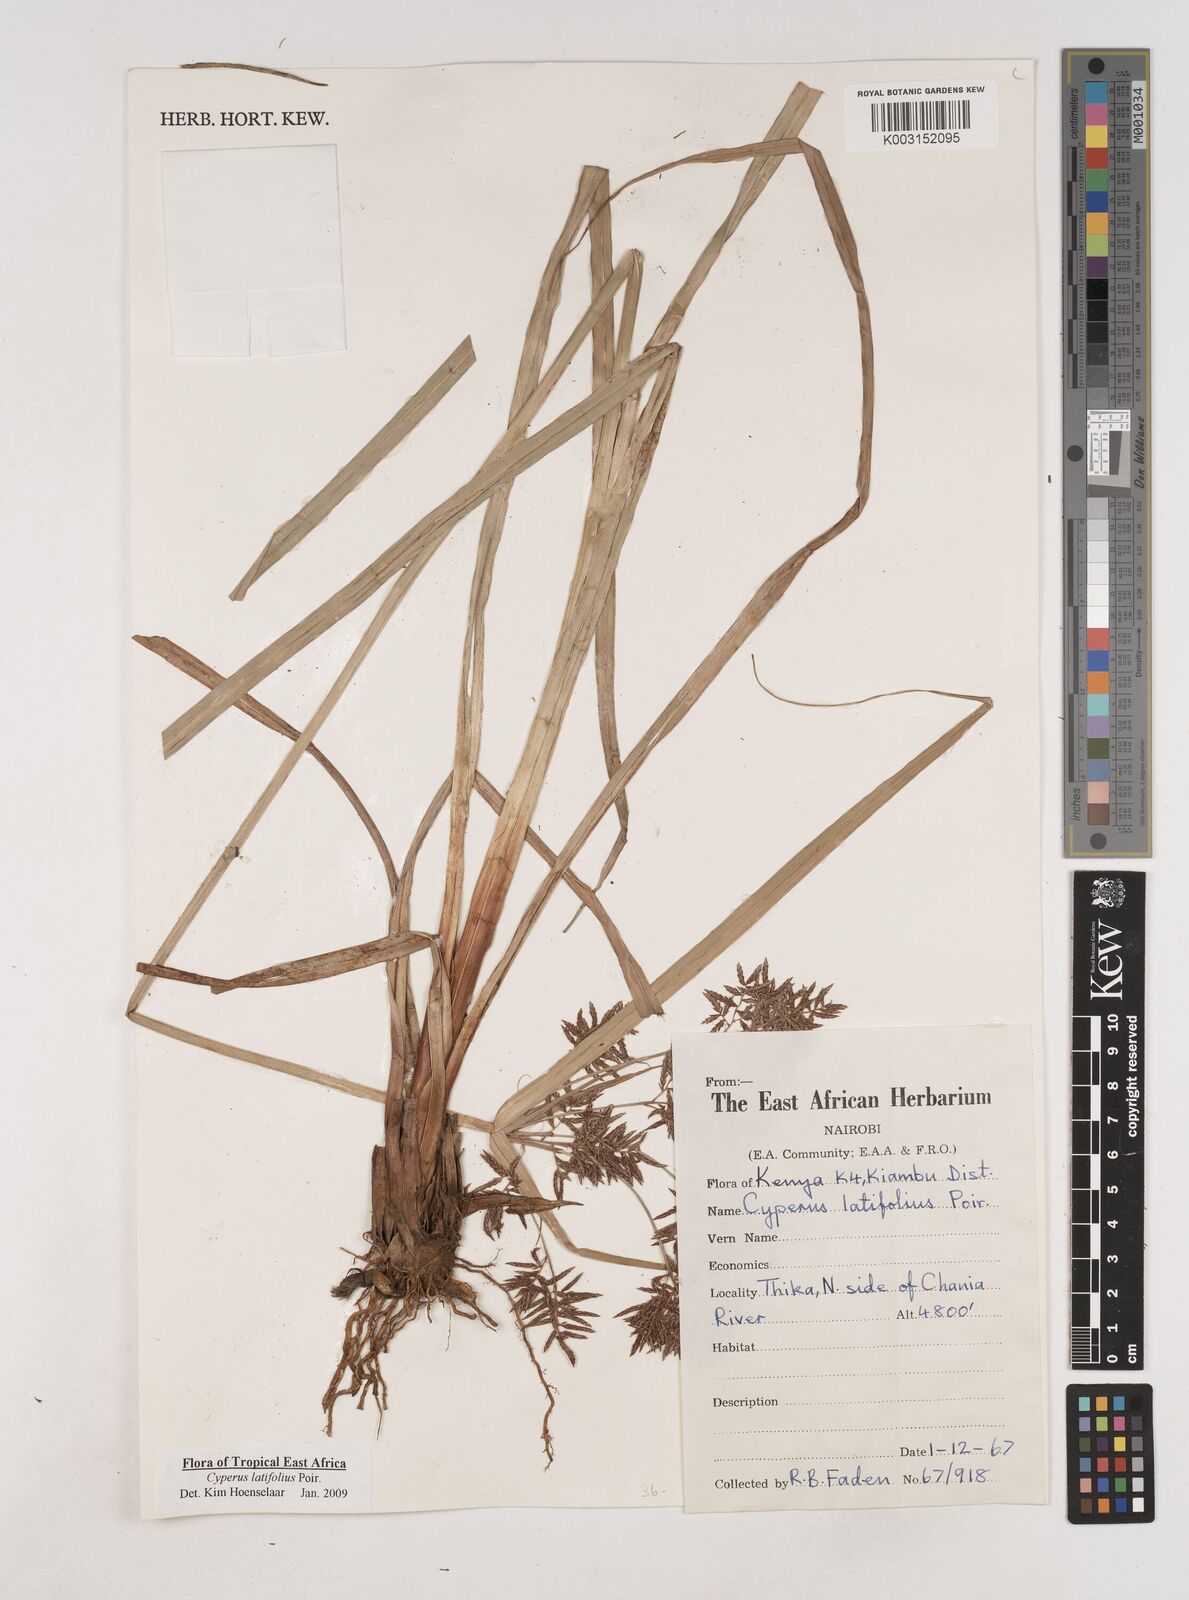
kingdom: Plantae
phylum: Tracheophyta
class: Liliopsida
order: Poales
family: Cyperaceae
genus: Cyperus
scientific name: Cyperus latifolius
